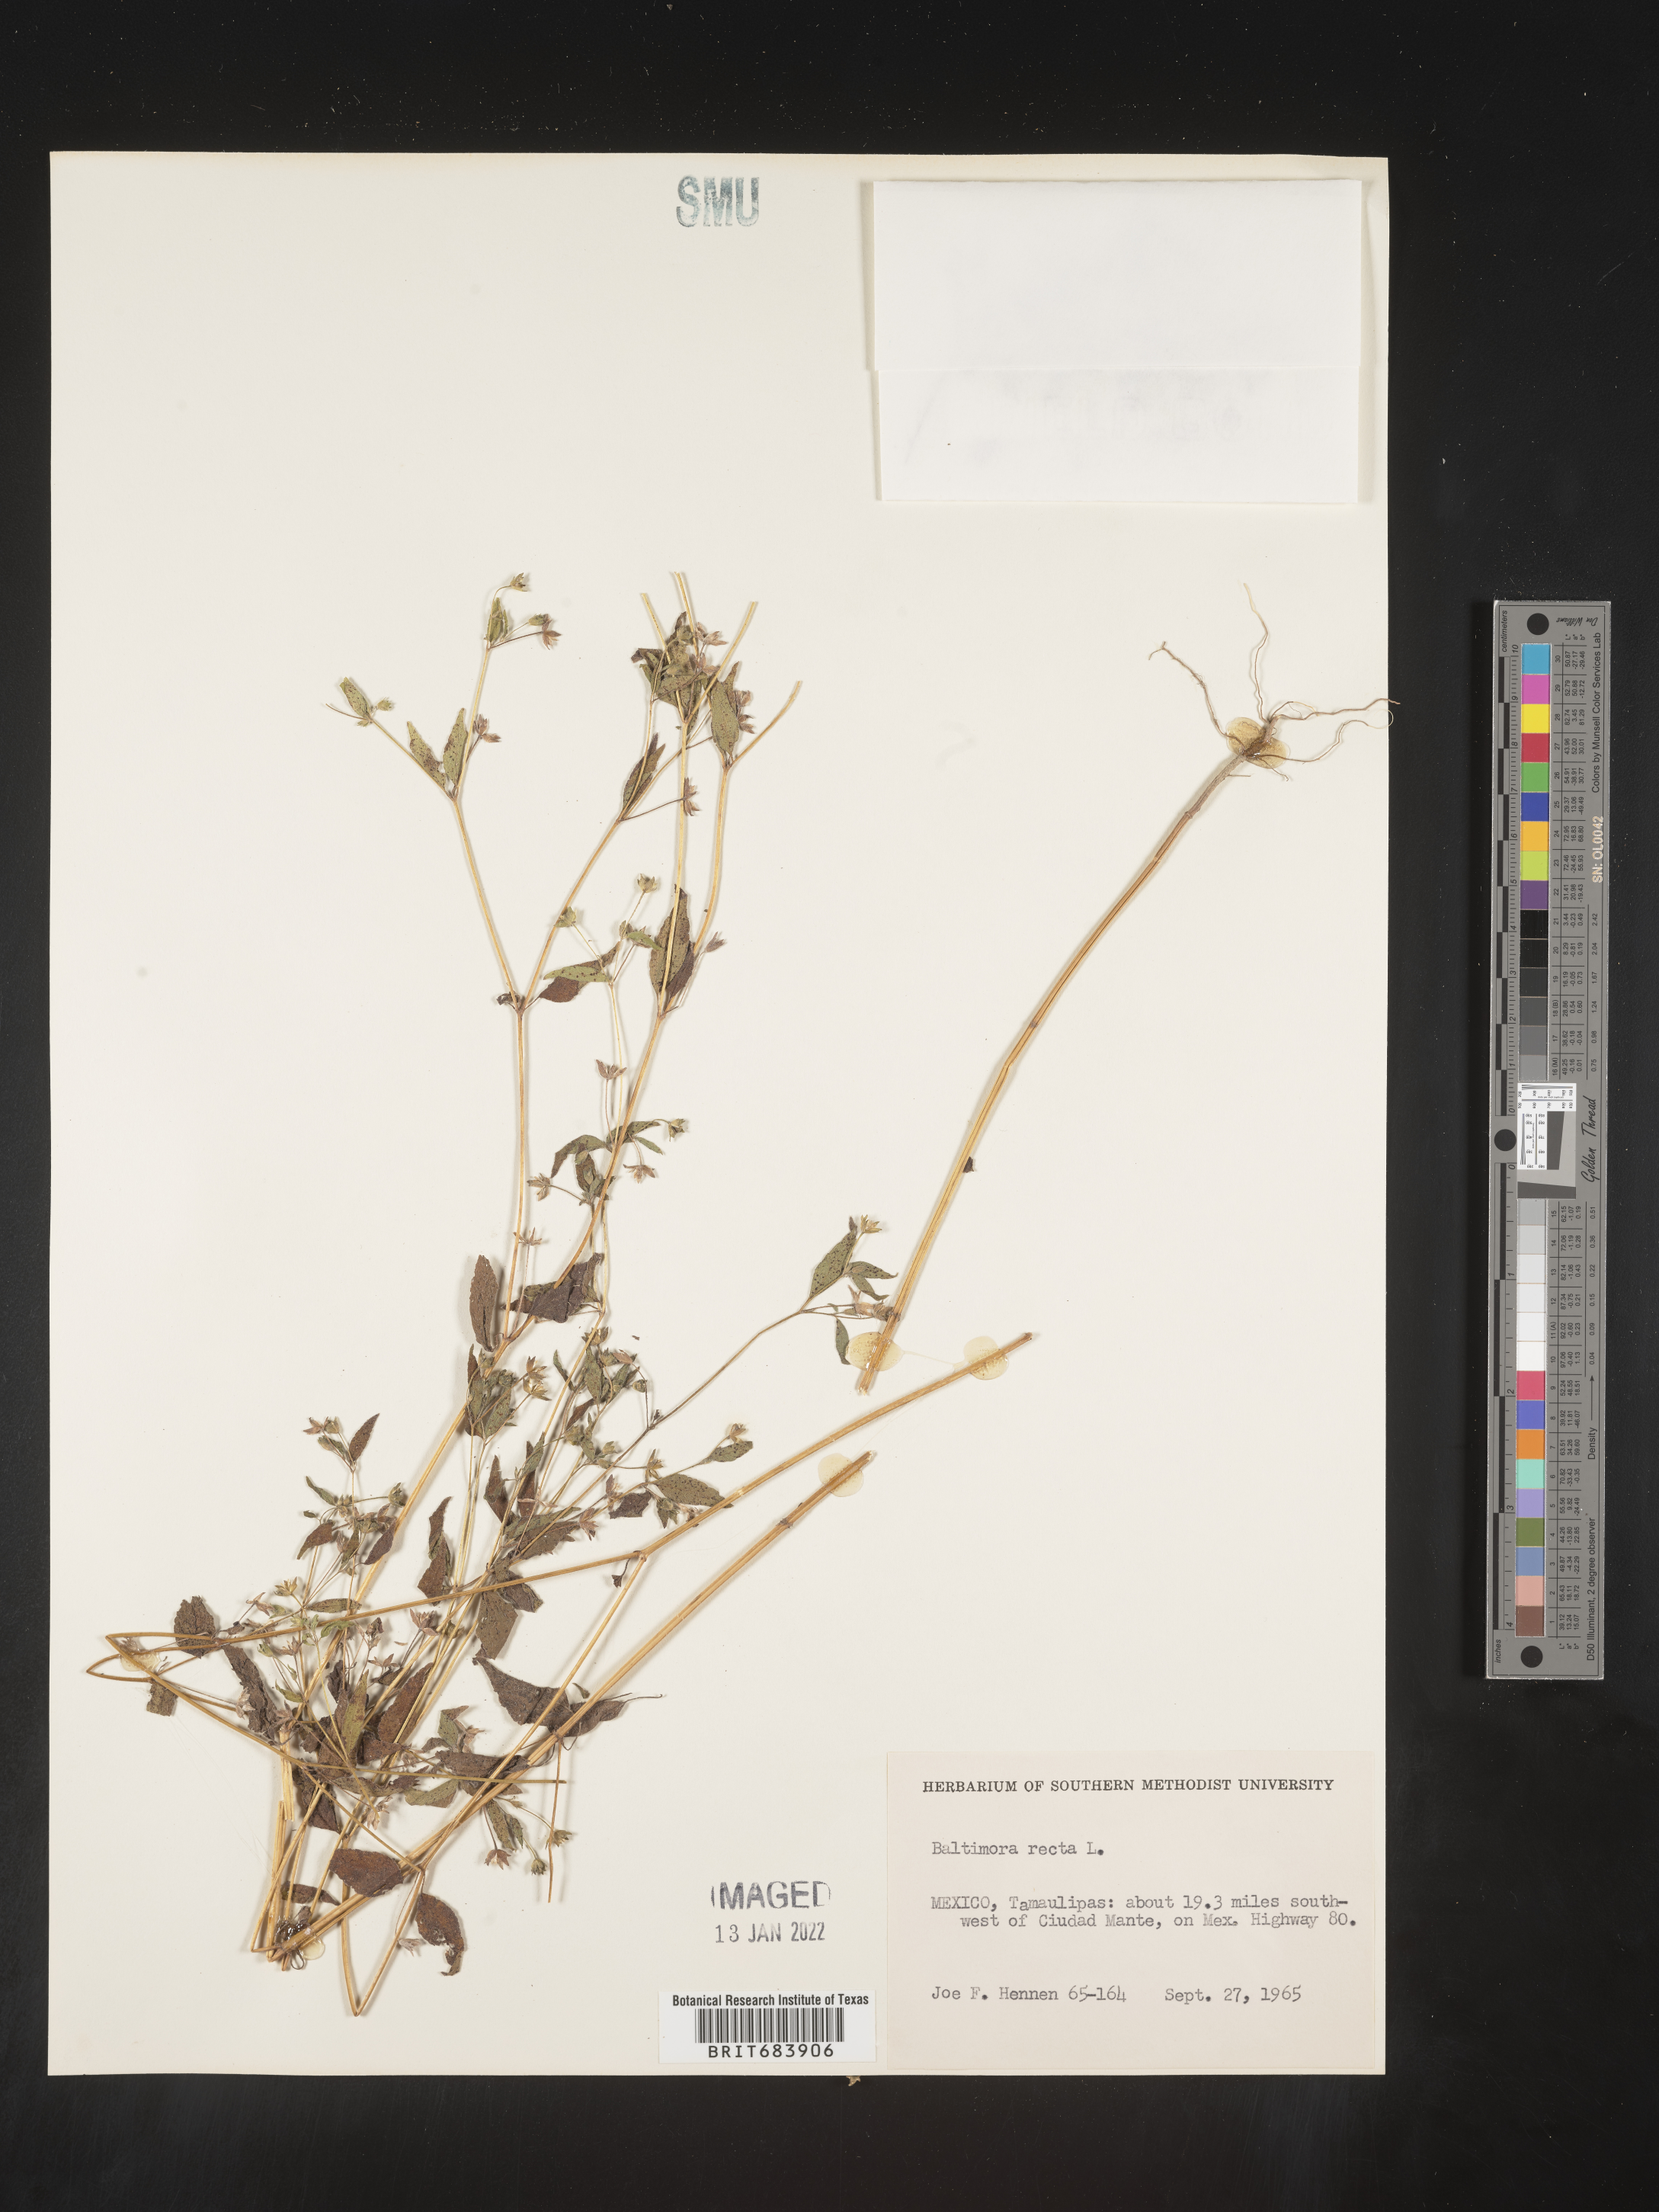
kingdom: Plantae
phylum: Tracheophyta
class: Magnoliopsida
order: Asterales
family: Asteraceae
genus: Baltimora
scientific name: Baltimora
